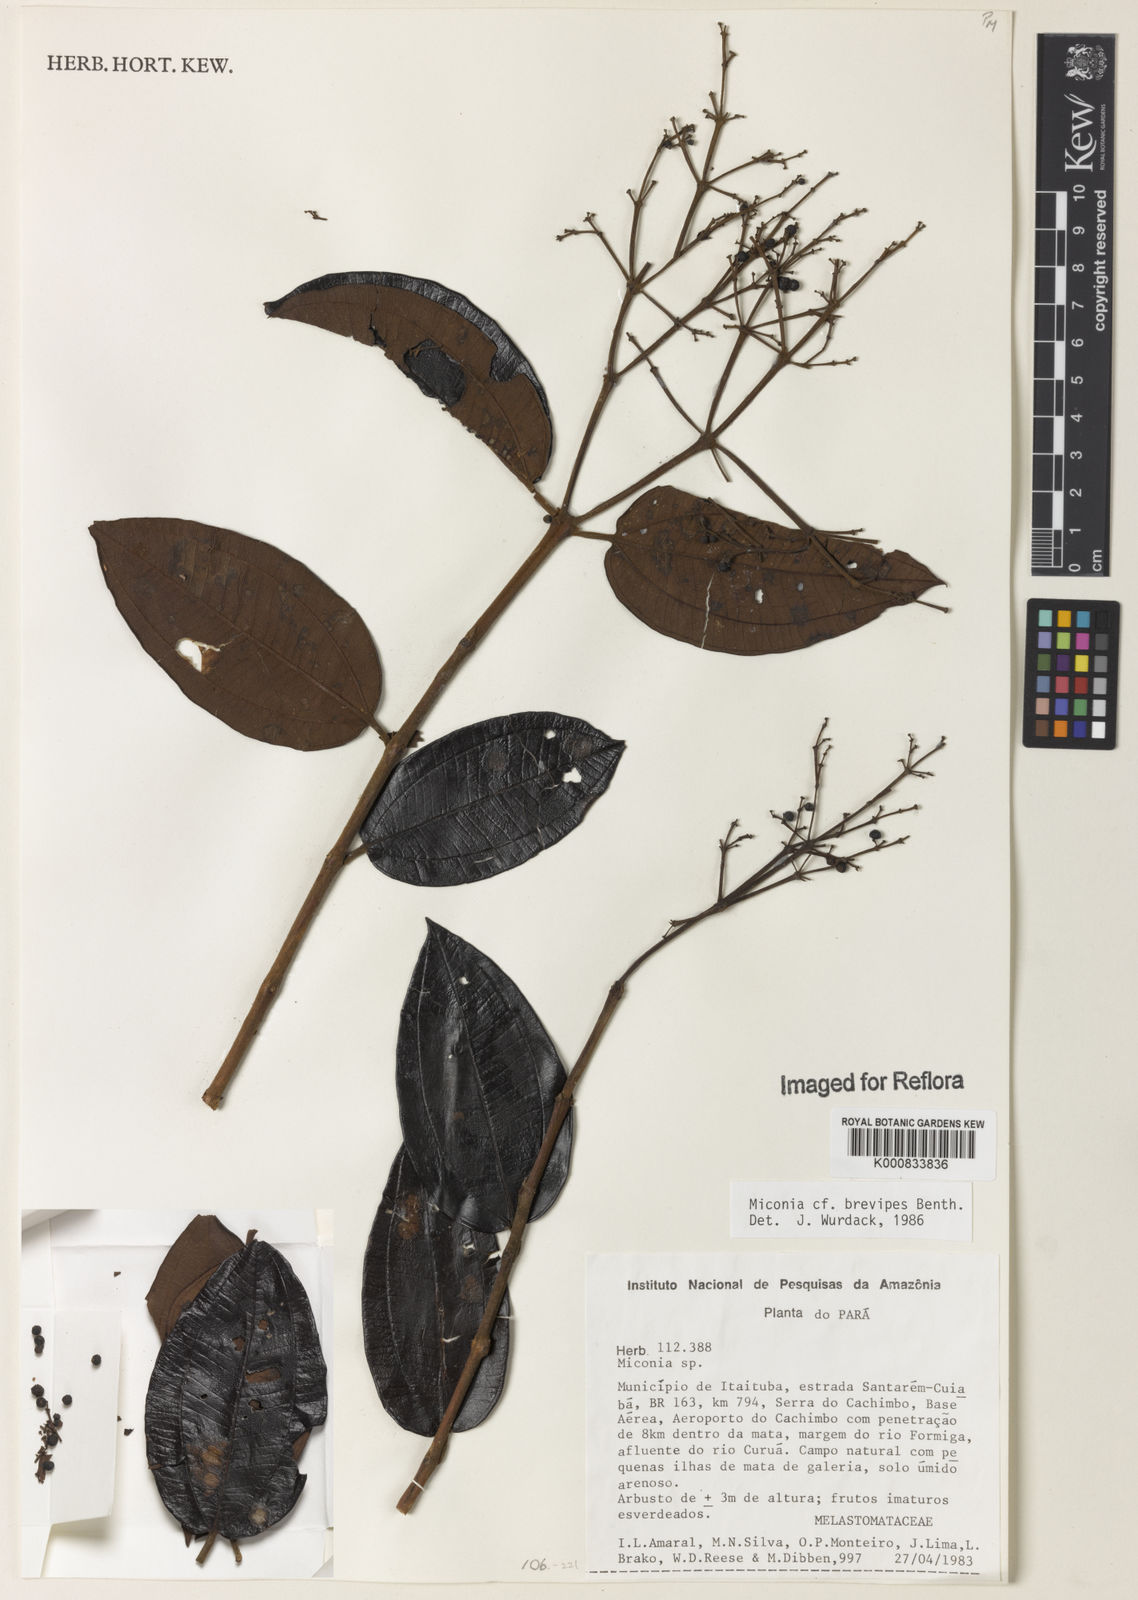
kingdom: Plantae
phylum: Tracheophyta
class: Magnoliopsida
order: Myrtales
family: Melastomataceae
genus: Miconia
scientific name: Miconia brevipes
